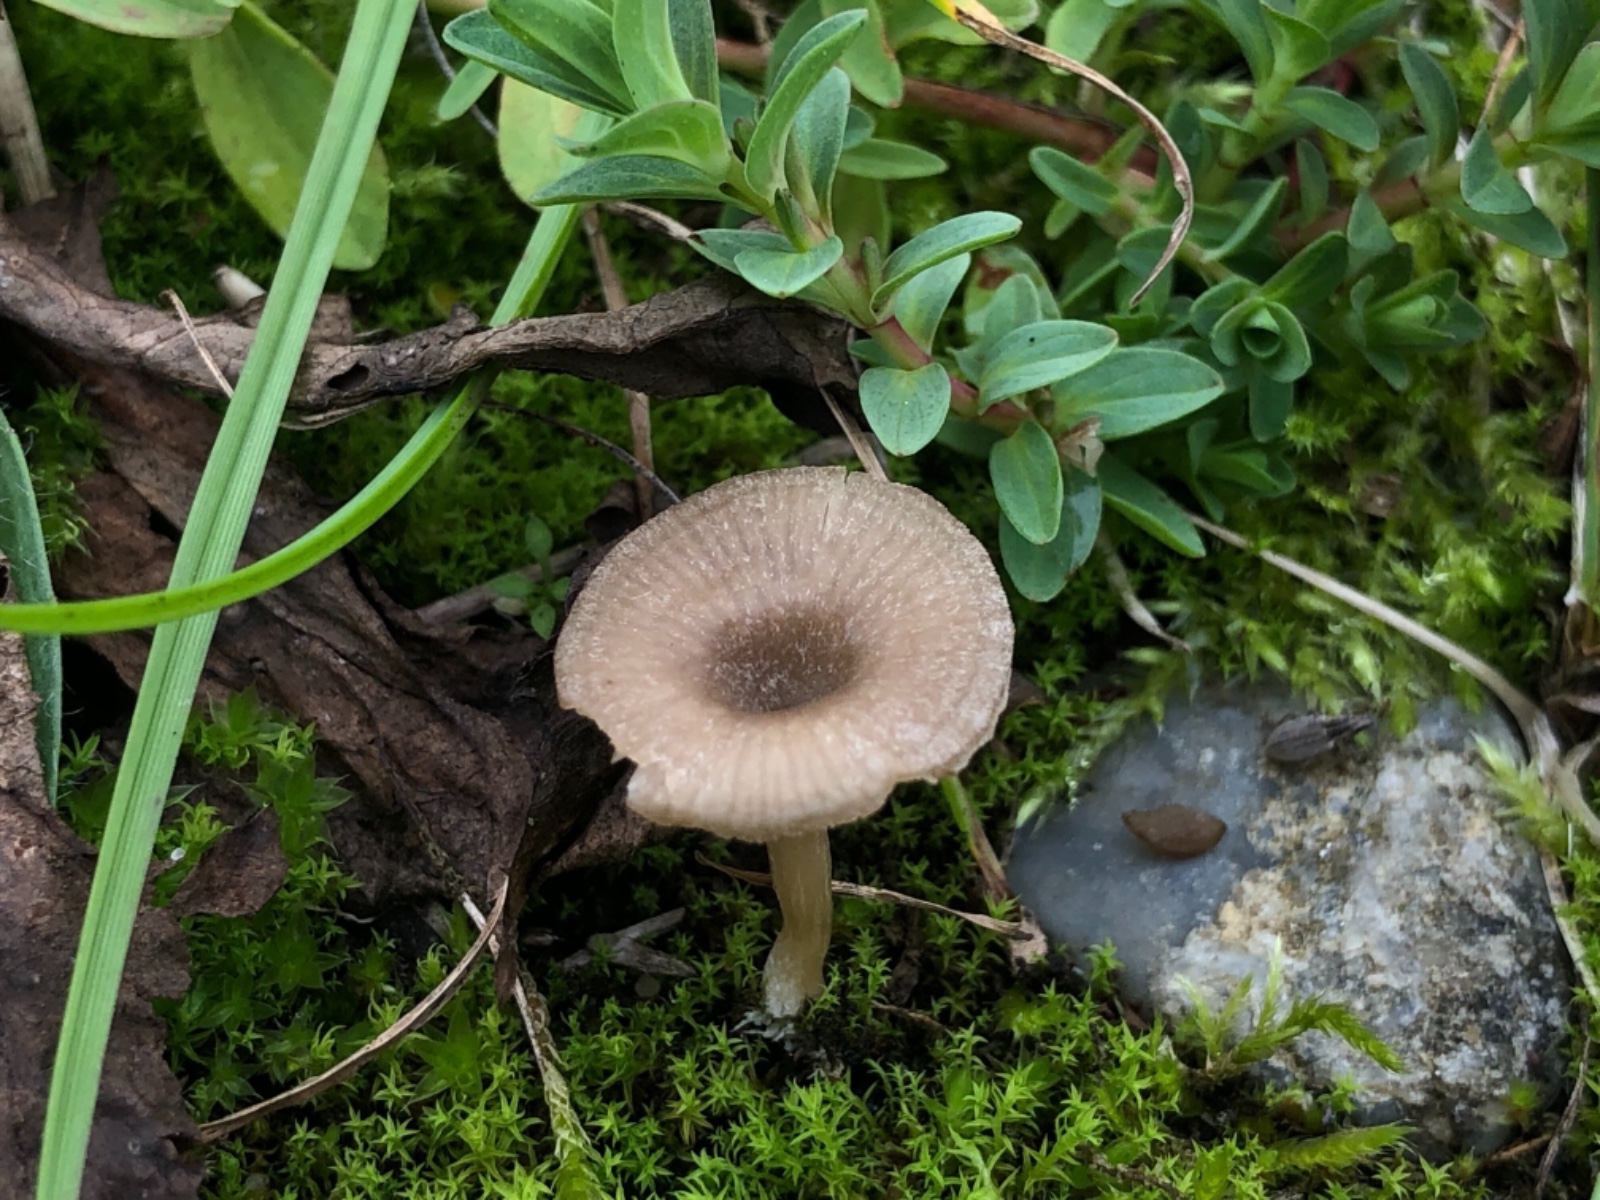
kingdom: Fungi
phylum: Basidiomycota
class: Agaricomycetes
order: Agaricales
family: Entolomataceae
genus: Entoloma
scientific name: Entoloma undatum
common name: bæltet rødblad
